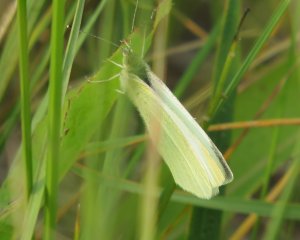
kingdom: Animalia
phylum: Arthropoda
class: Insecta
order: Lepidoptera
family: Pieridae
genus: Pieris
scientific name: Pieris rapae
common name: Cabbage White
